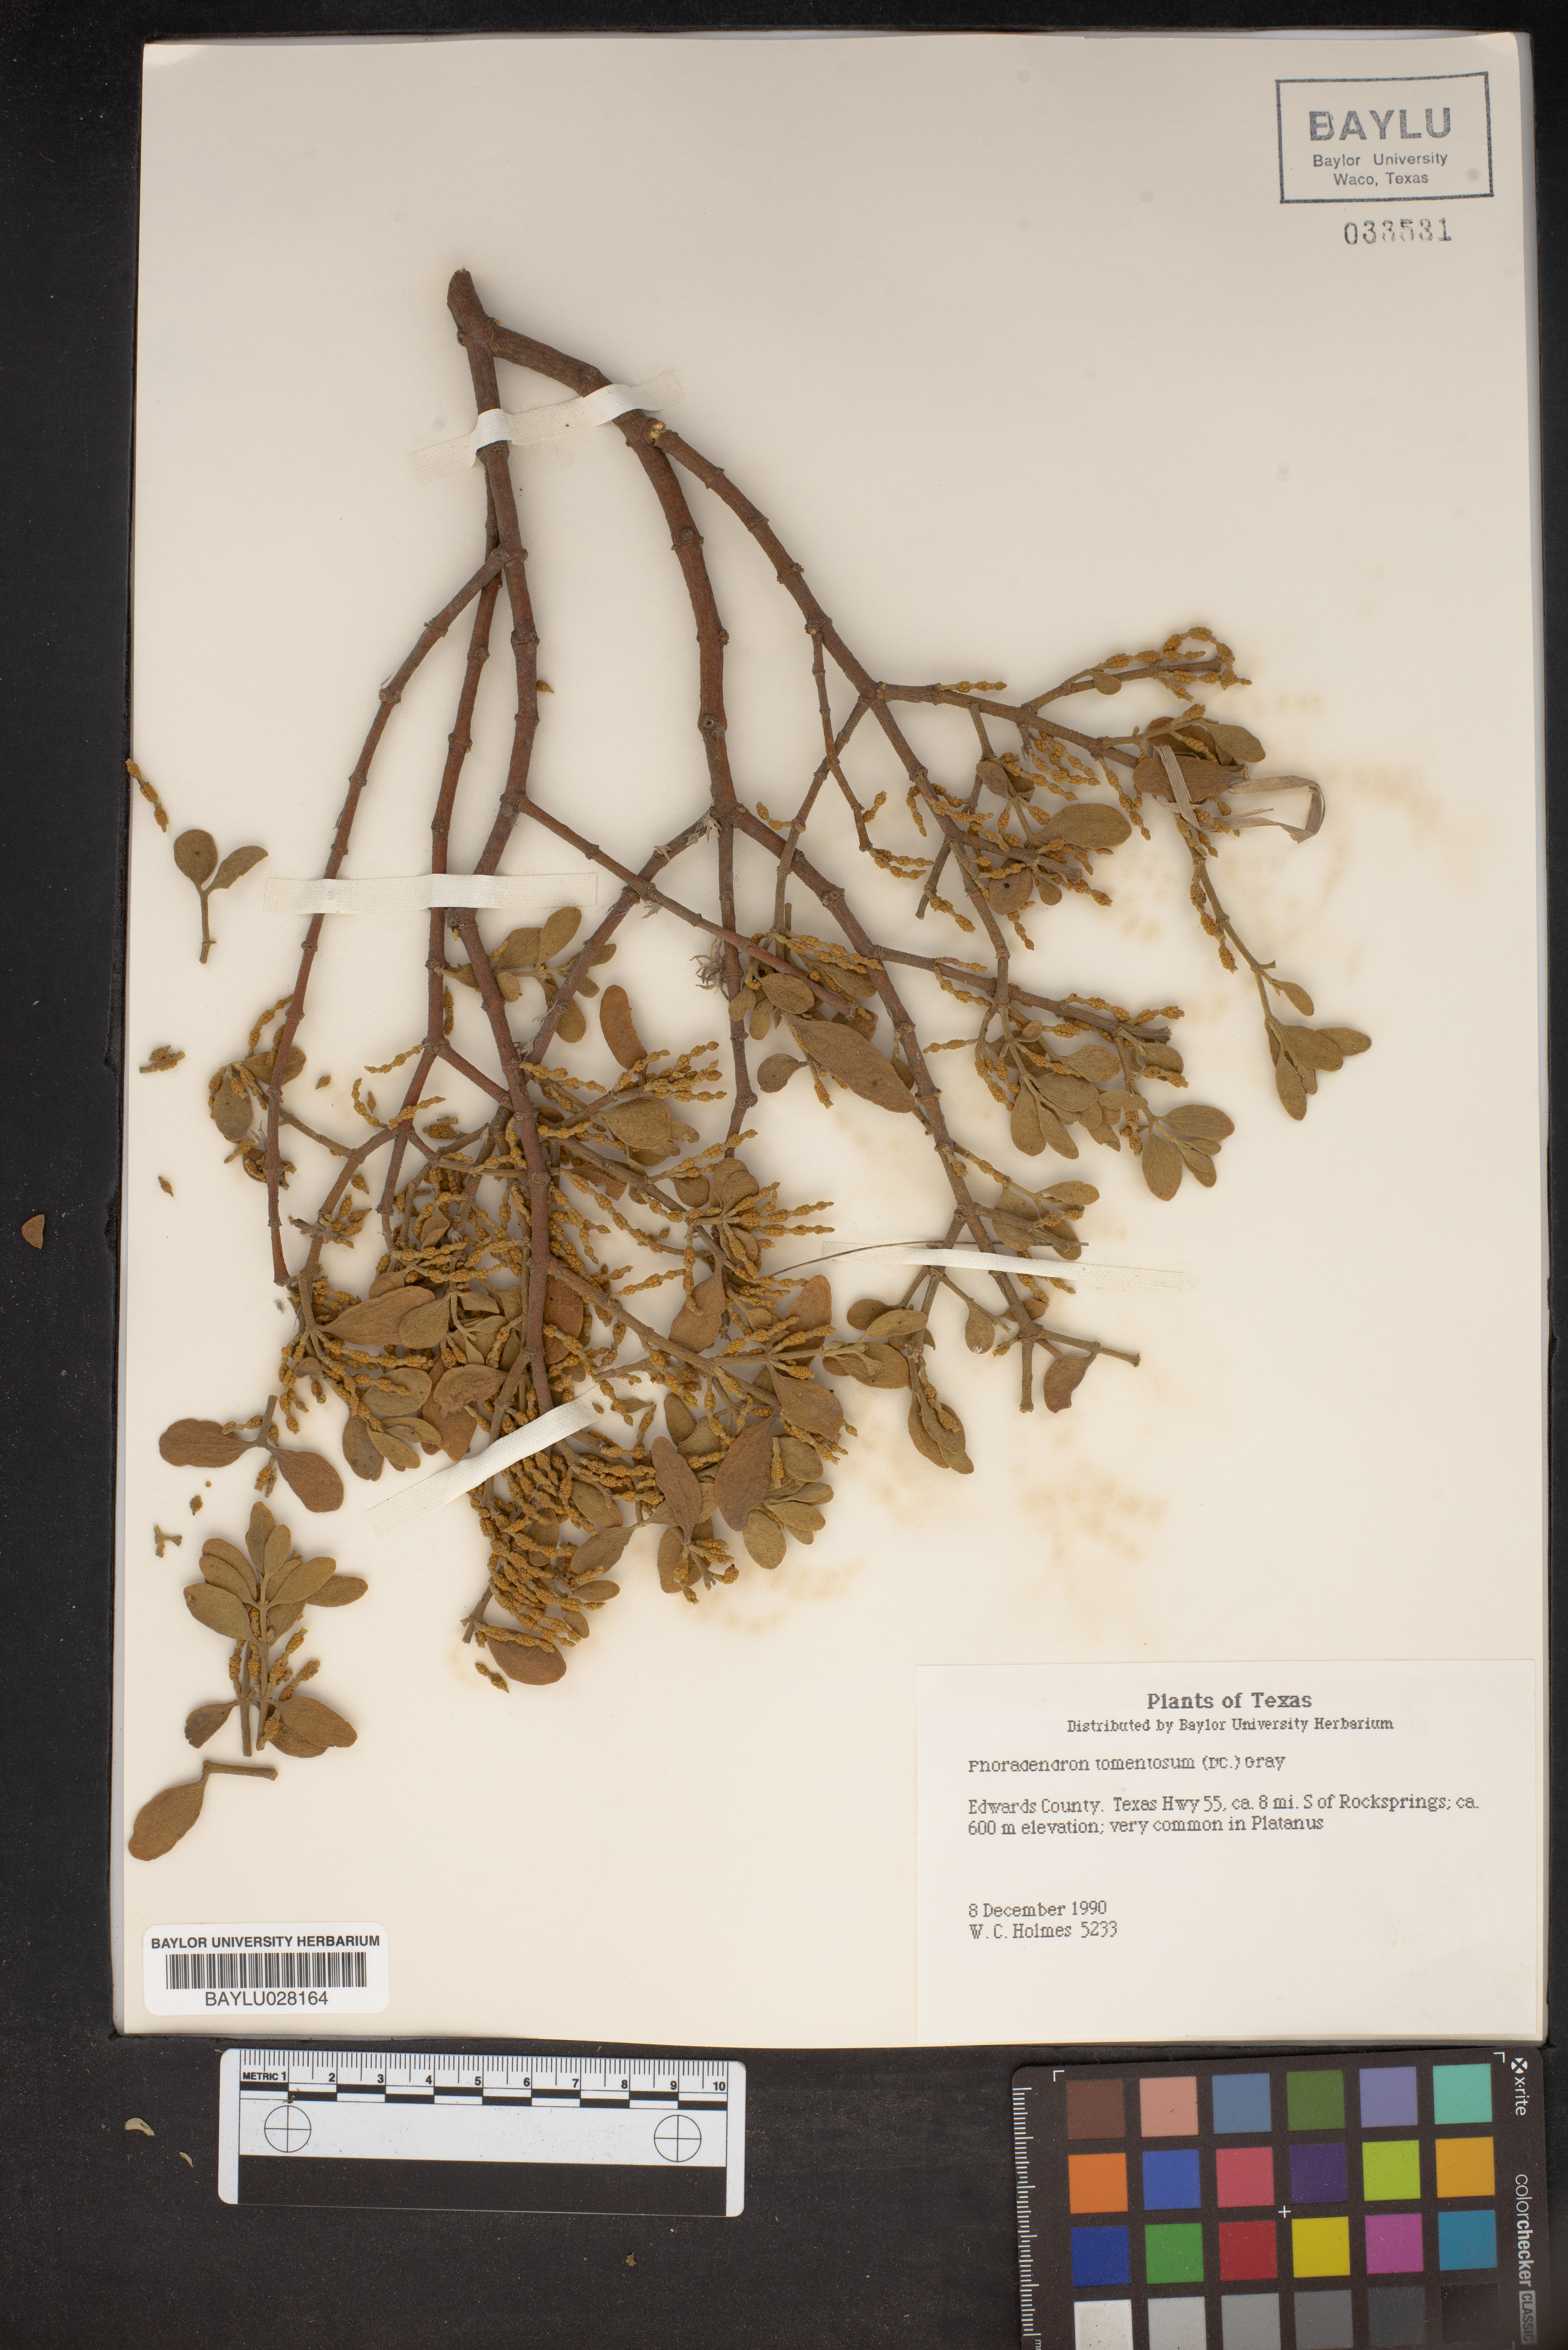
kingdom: Plantae
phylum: Tracheophyta
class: Magnoliopsida
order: Santalales
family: Viscaceae
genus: Phoradendron
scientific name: Phoradendron leucarpum
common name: Pacific mistletoe
